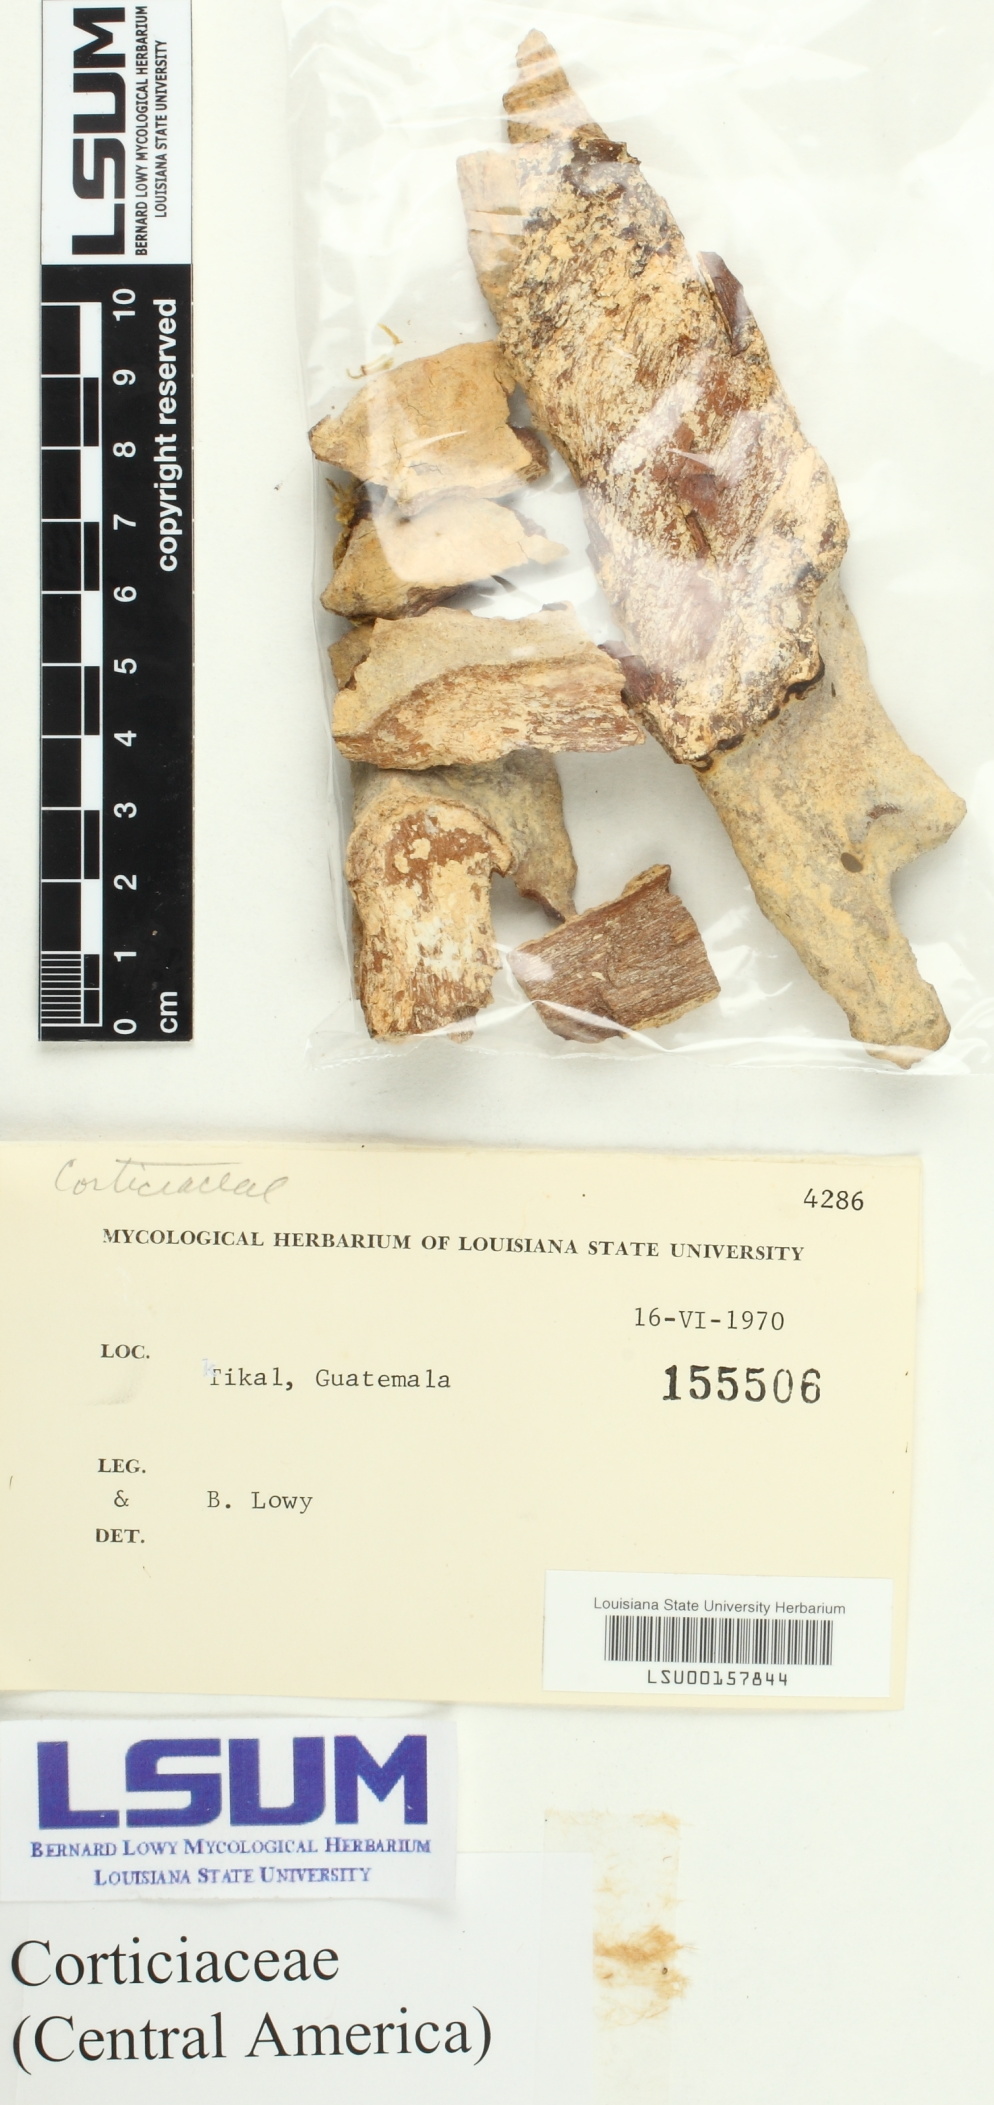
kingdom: Fungi
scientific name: Fungi
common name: Fungi
